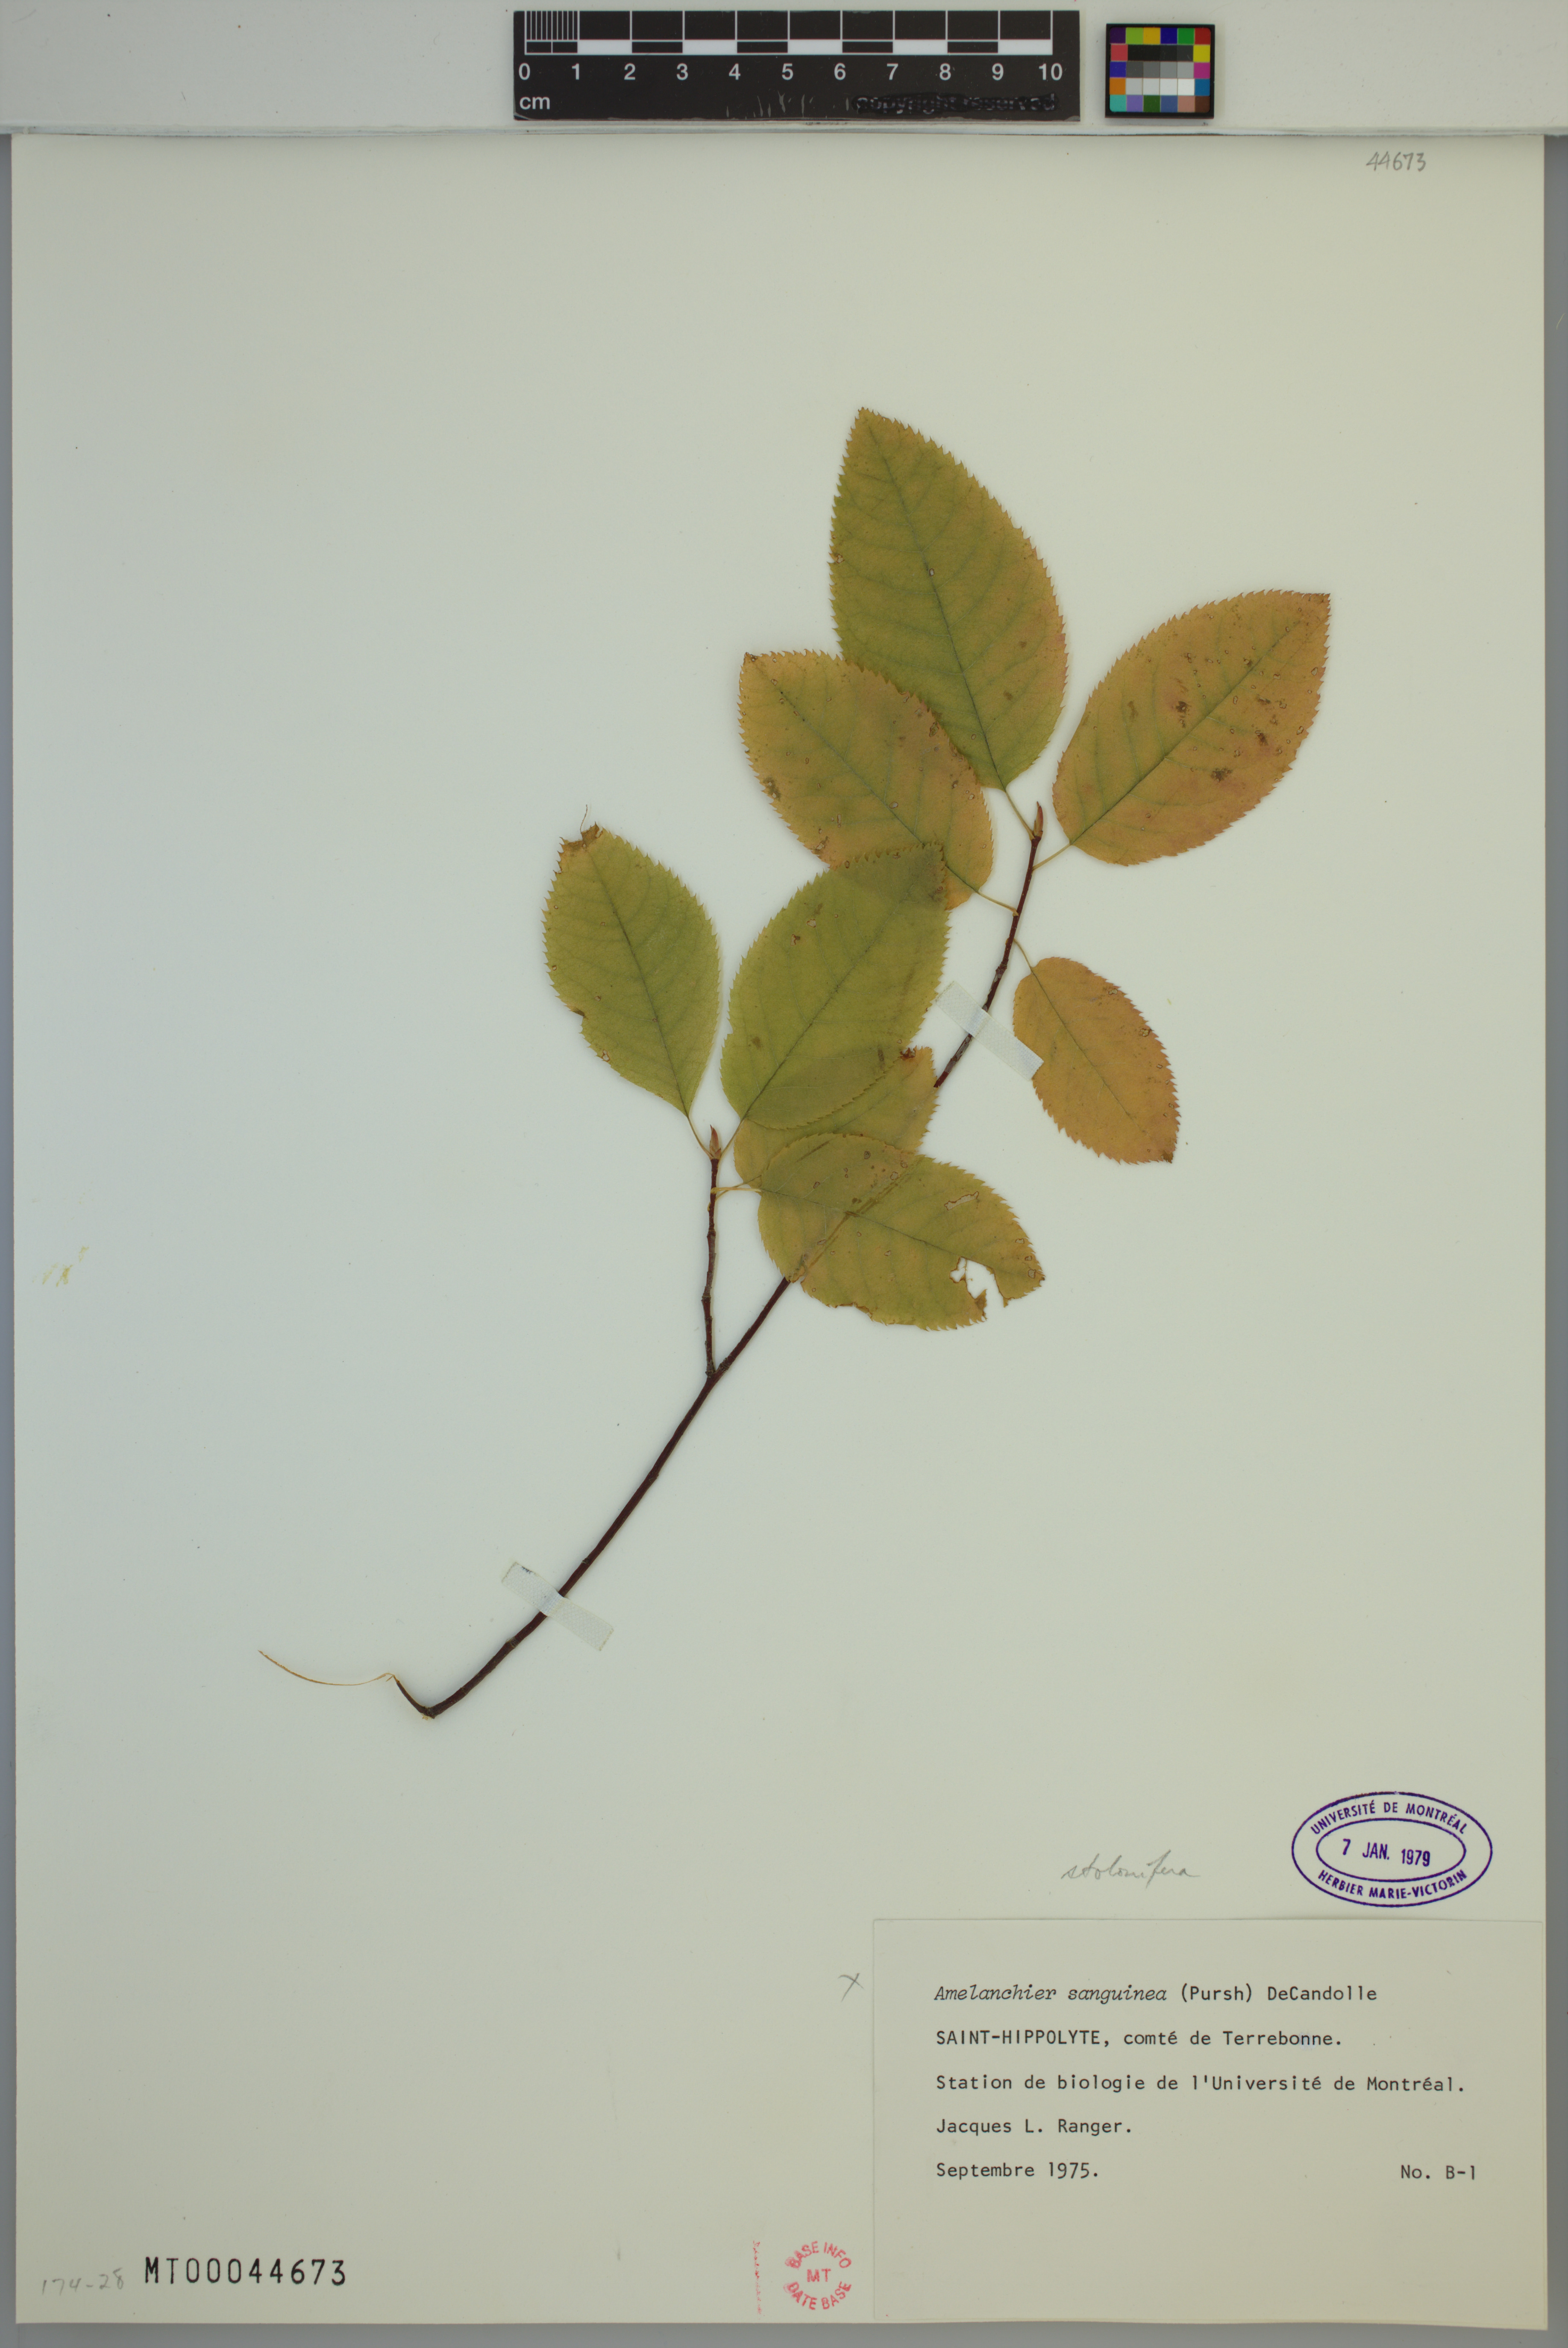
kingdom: Plantae
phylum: Tracheophyta
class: Magnoliopsida
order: Rosales
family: Rosaceae
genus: Amelanchier
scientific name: Amelanchier humilis
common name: Low juneberry
